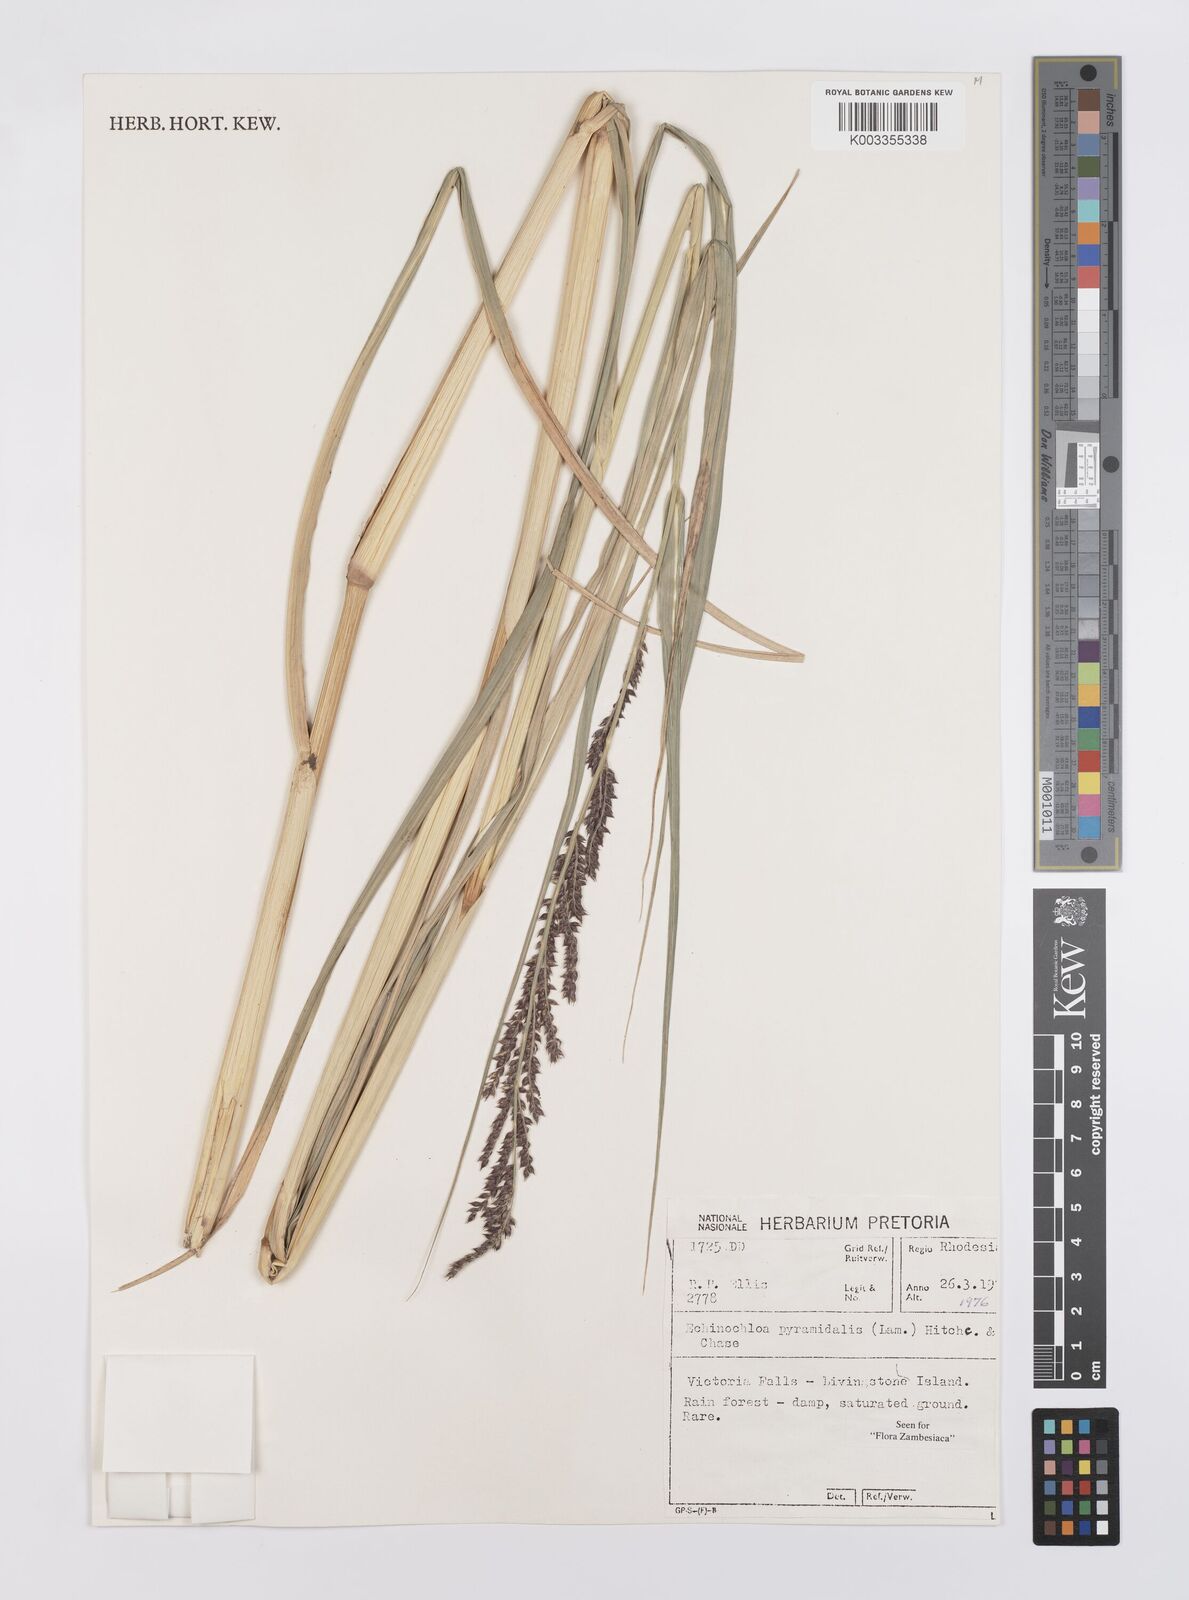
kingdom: Plantae
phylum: Tracheophyta
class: Liliopsida
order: Poales
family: Poaceae
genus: Echinochloa
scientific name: Echinochloa pyramidalis
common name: Antelope grass
